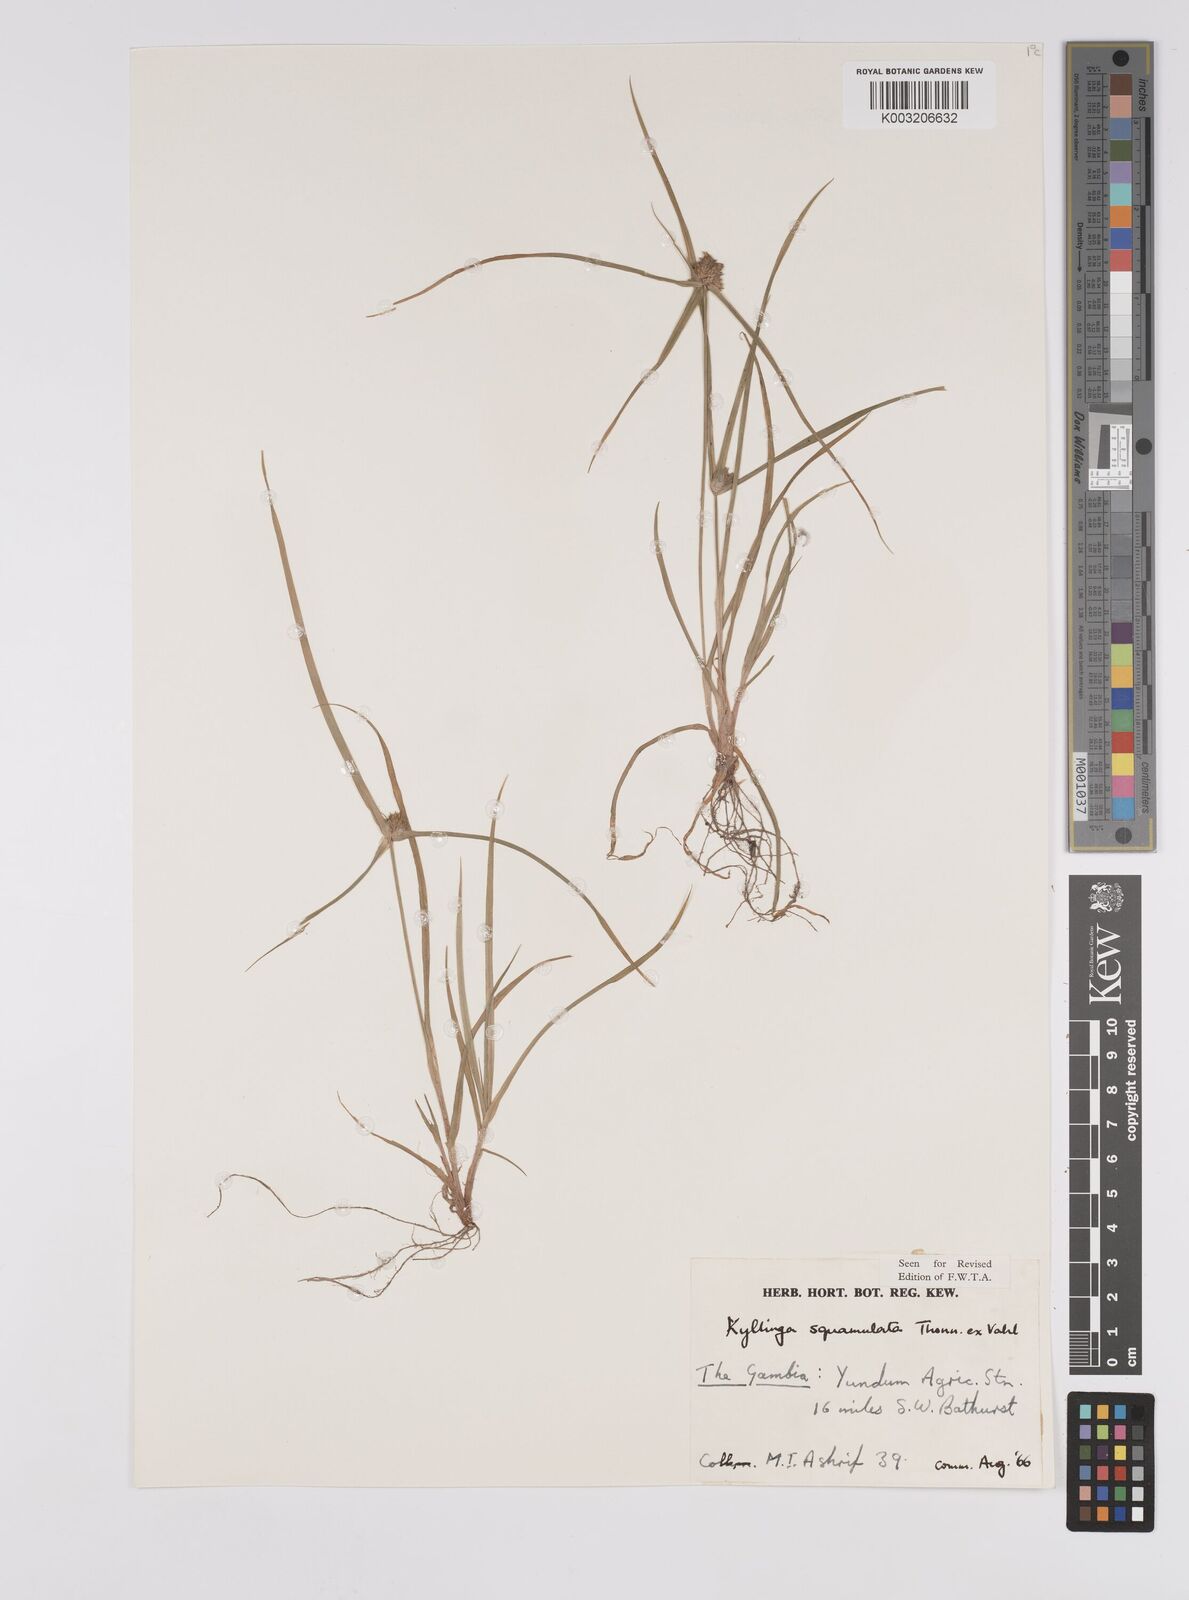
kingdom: Plantae
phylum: Tracheophyta
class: Liliopsida
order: Poales
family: Cyperaceae
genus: Cyperus
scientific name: Cyperus distans
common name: Slender cyperus
